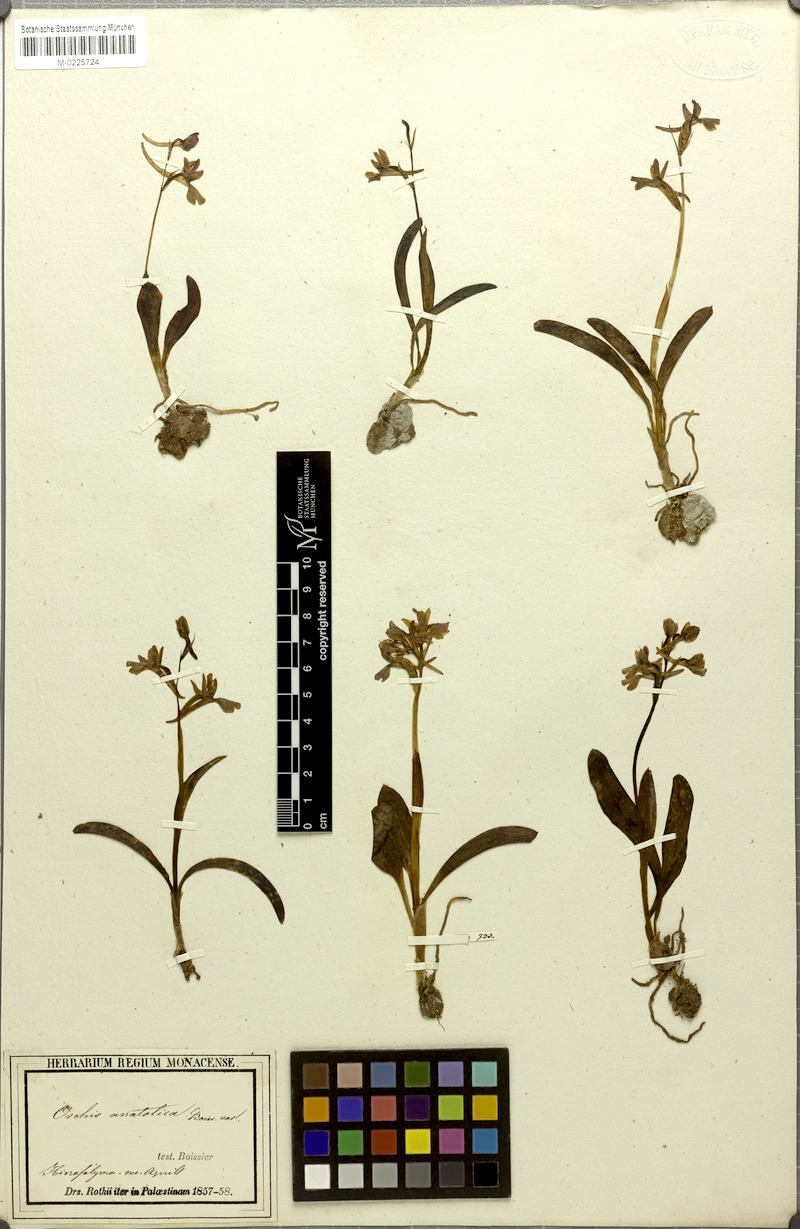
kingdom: Plantae
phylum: Tracheophyta
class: Liliopsida
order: Asparagales
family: Orchidaceae
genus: Orchis
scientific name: Orchis anatolica
